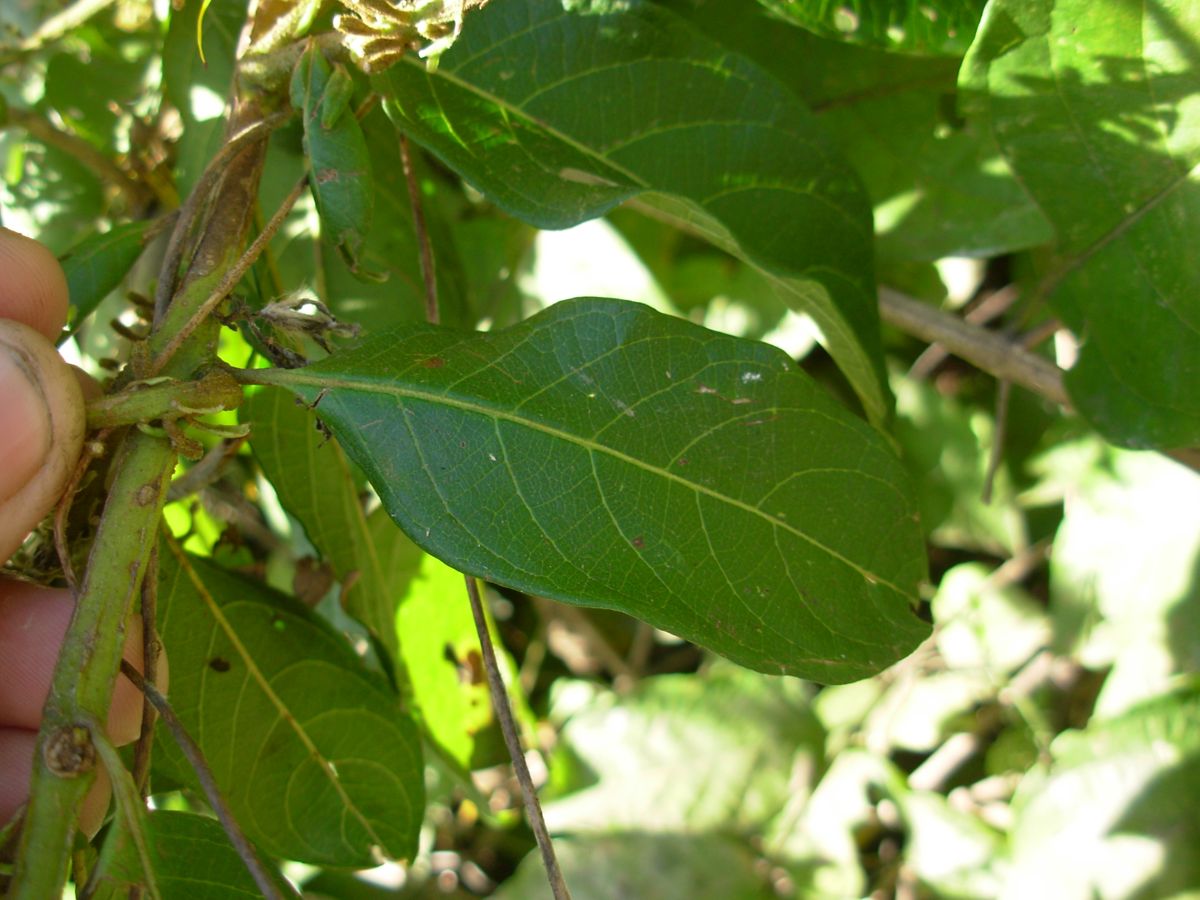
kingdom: Plantae
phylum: Tracheophyta
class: Magnoliopsida
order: Myrtales
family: Combretaceae
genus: Combretum
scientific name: Combretum argenteum
